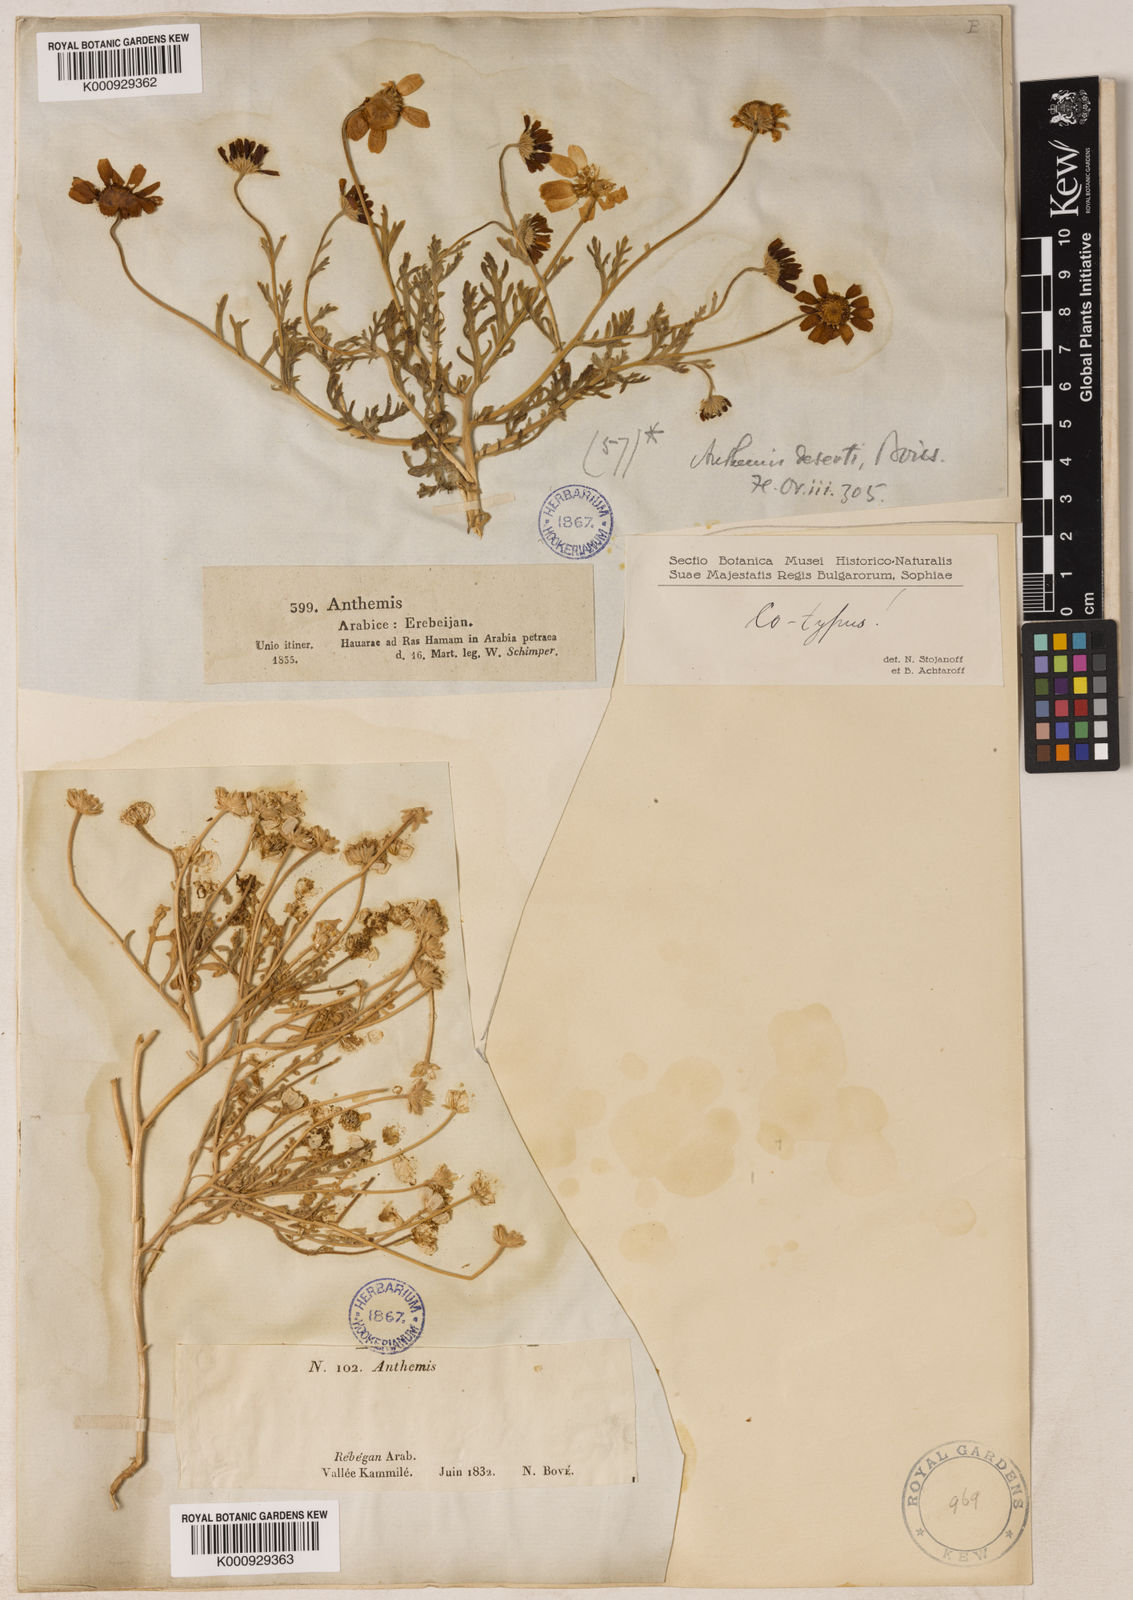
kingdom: Plantae
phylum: Tracheophyta
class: Magnoliopsida
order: Asterales
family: Asteraceae
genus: Anthemis
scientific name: Anthemis melampodina
